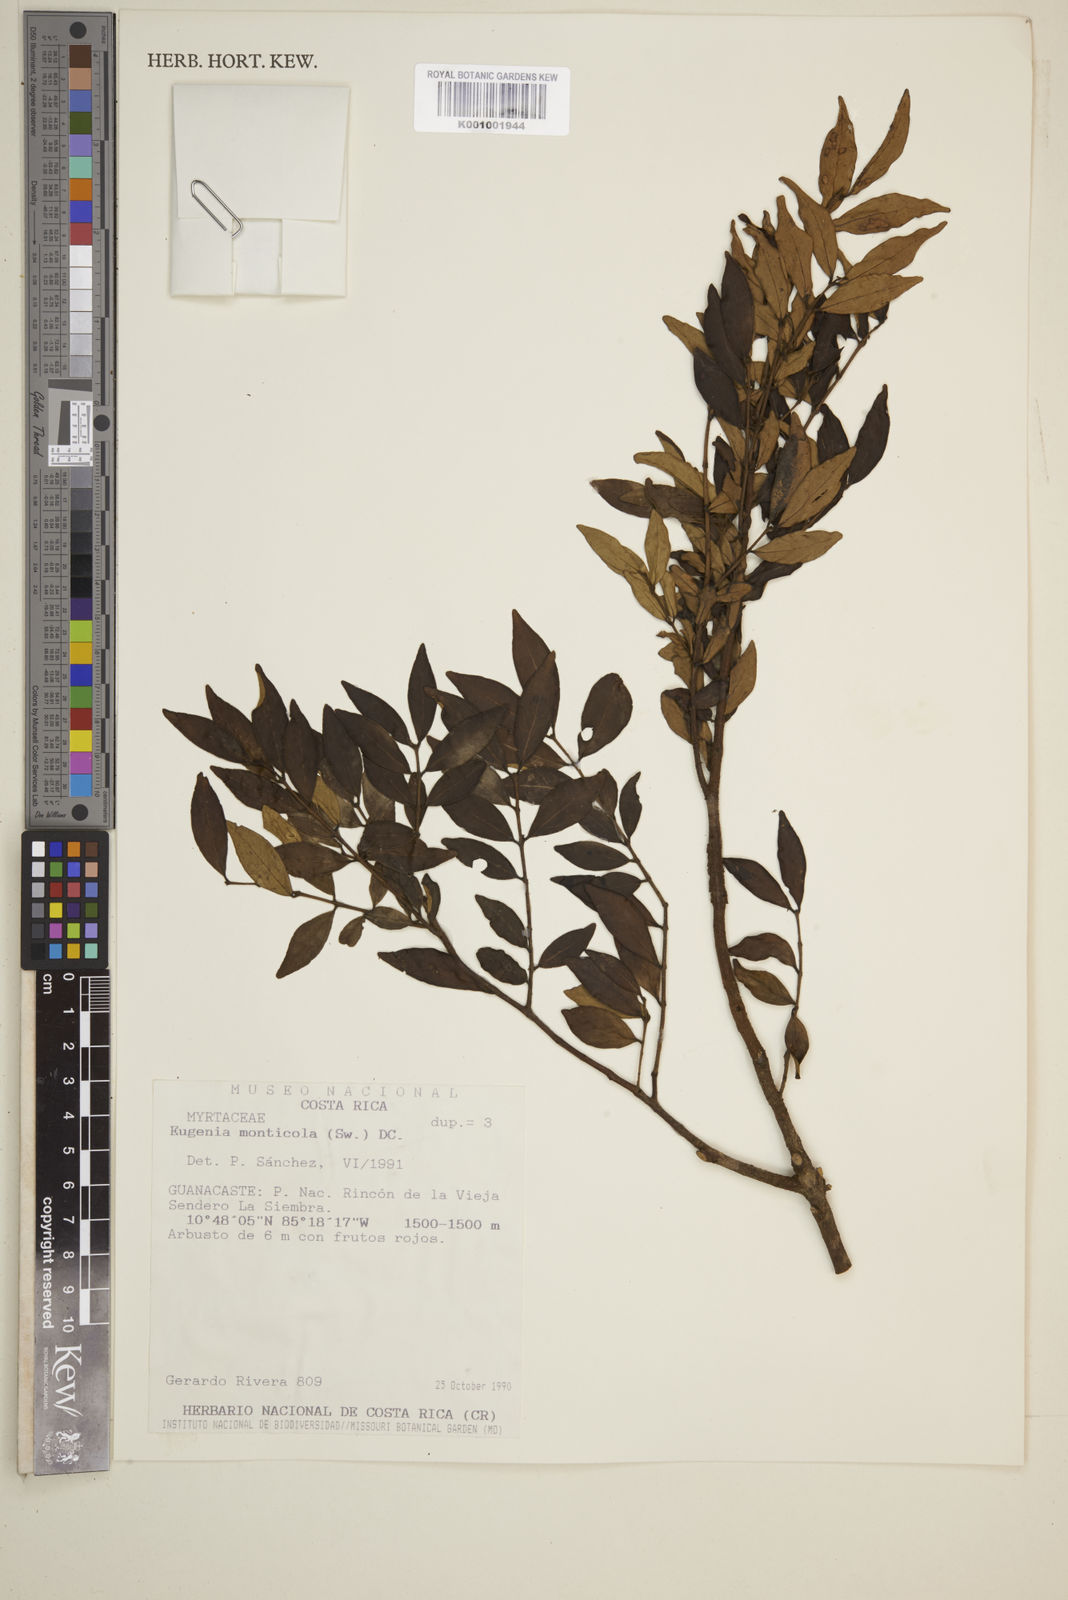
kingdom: Plantae
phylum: Tracheophyta
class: Magnoliopsida
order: Myrtales
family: Myrtaceae
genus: Eugenia
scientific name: Eugenia monticola
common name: Birds berry
